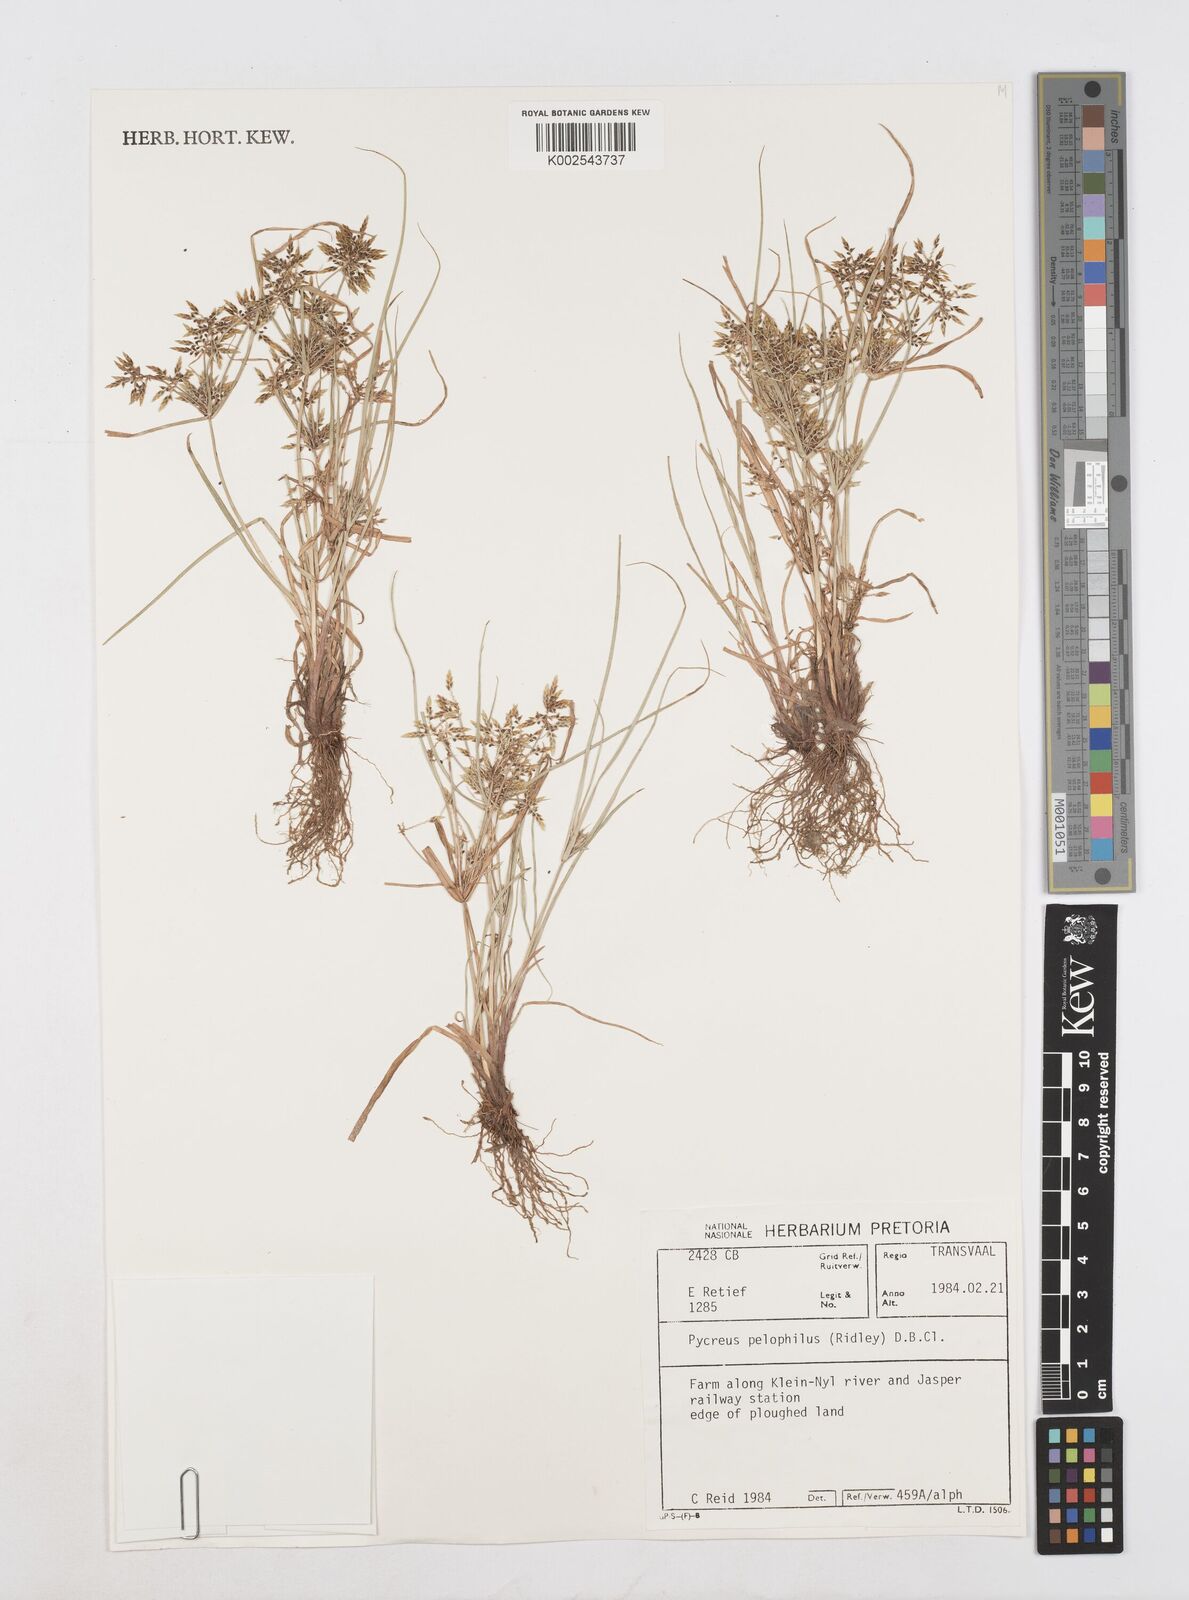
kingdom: Plantae
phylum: Tracheophyta
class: Liliopsida
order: Poales
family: Cyperaceae
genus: Cyperus
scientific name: Cyperus pelophilus
